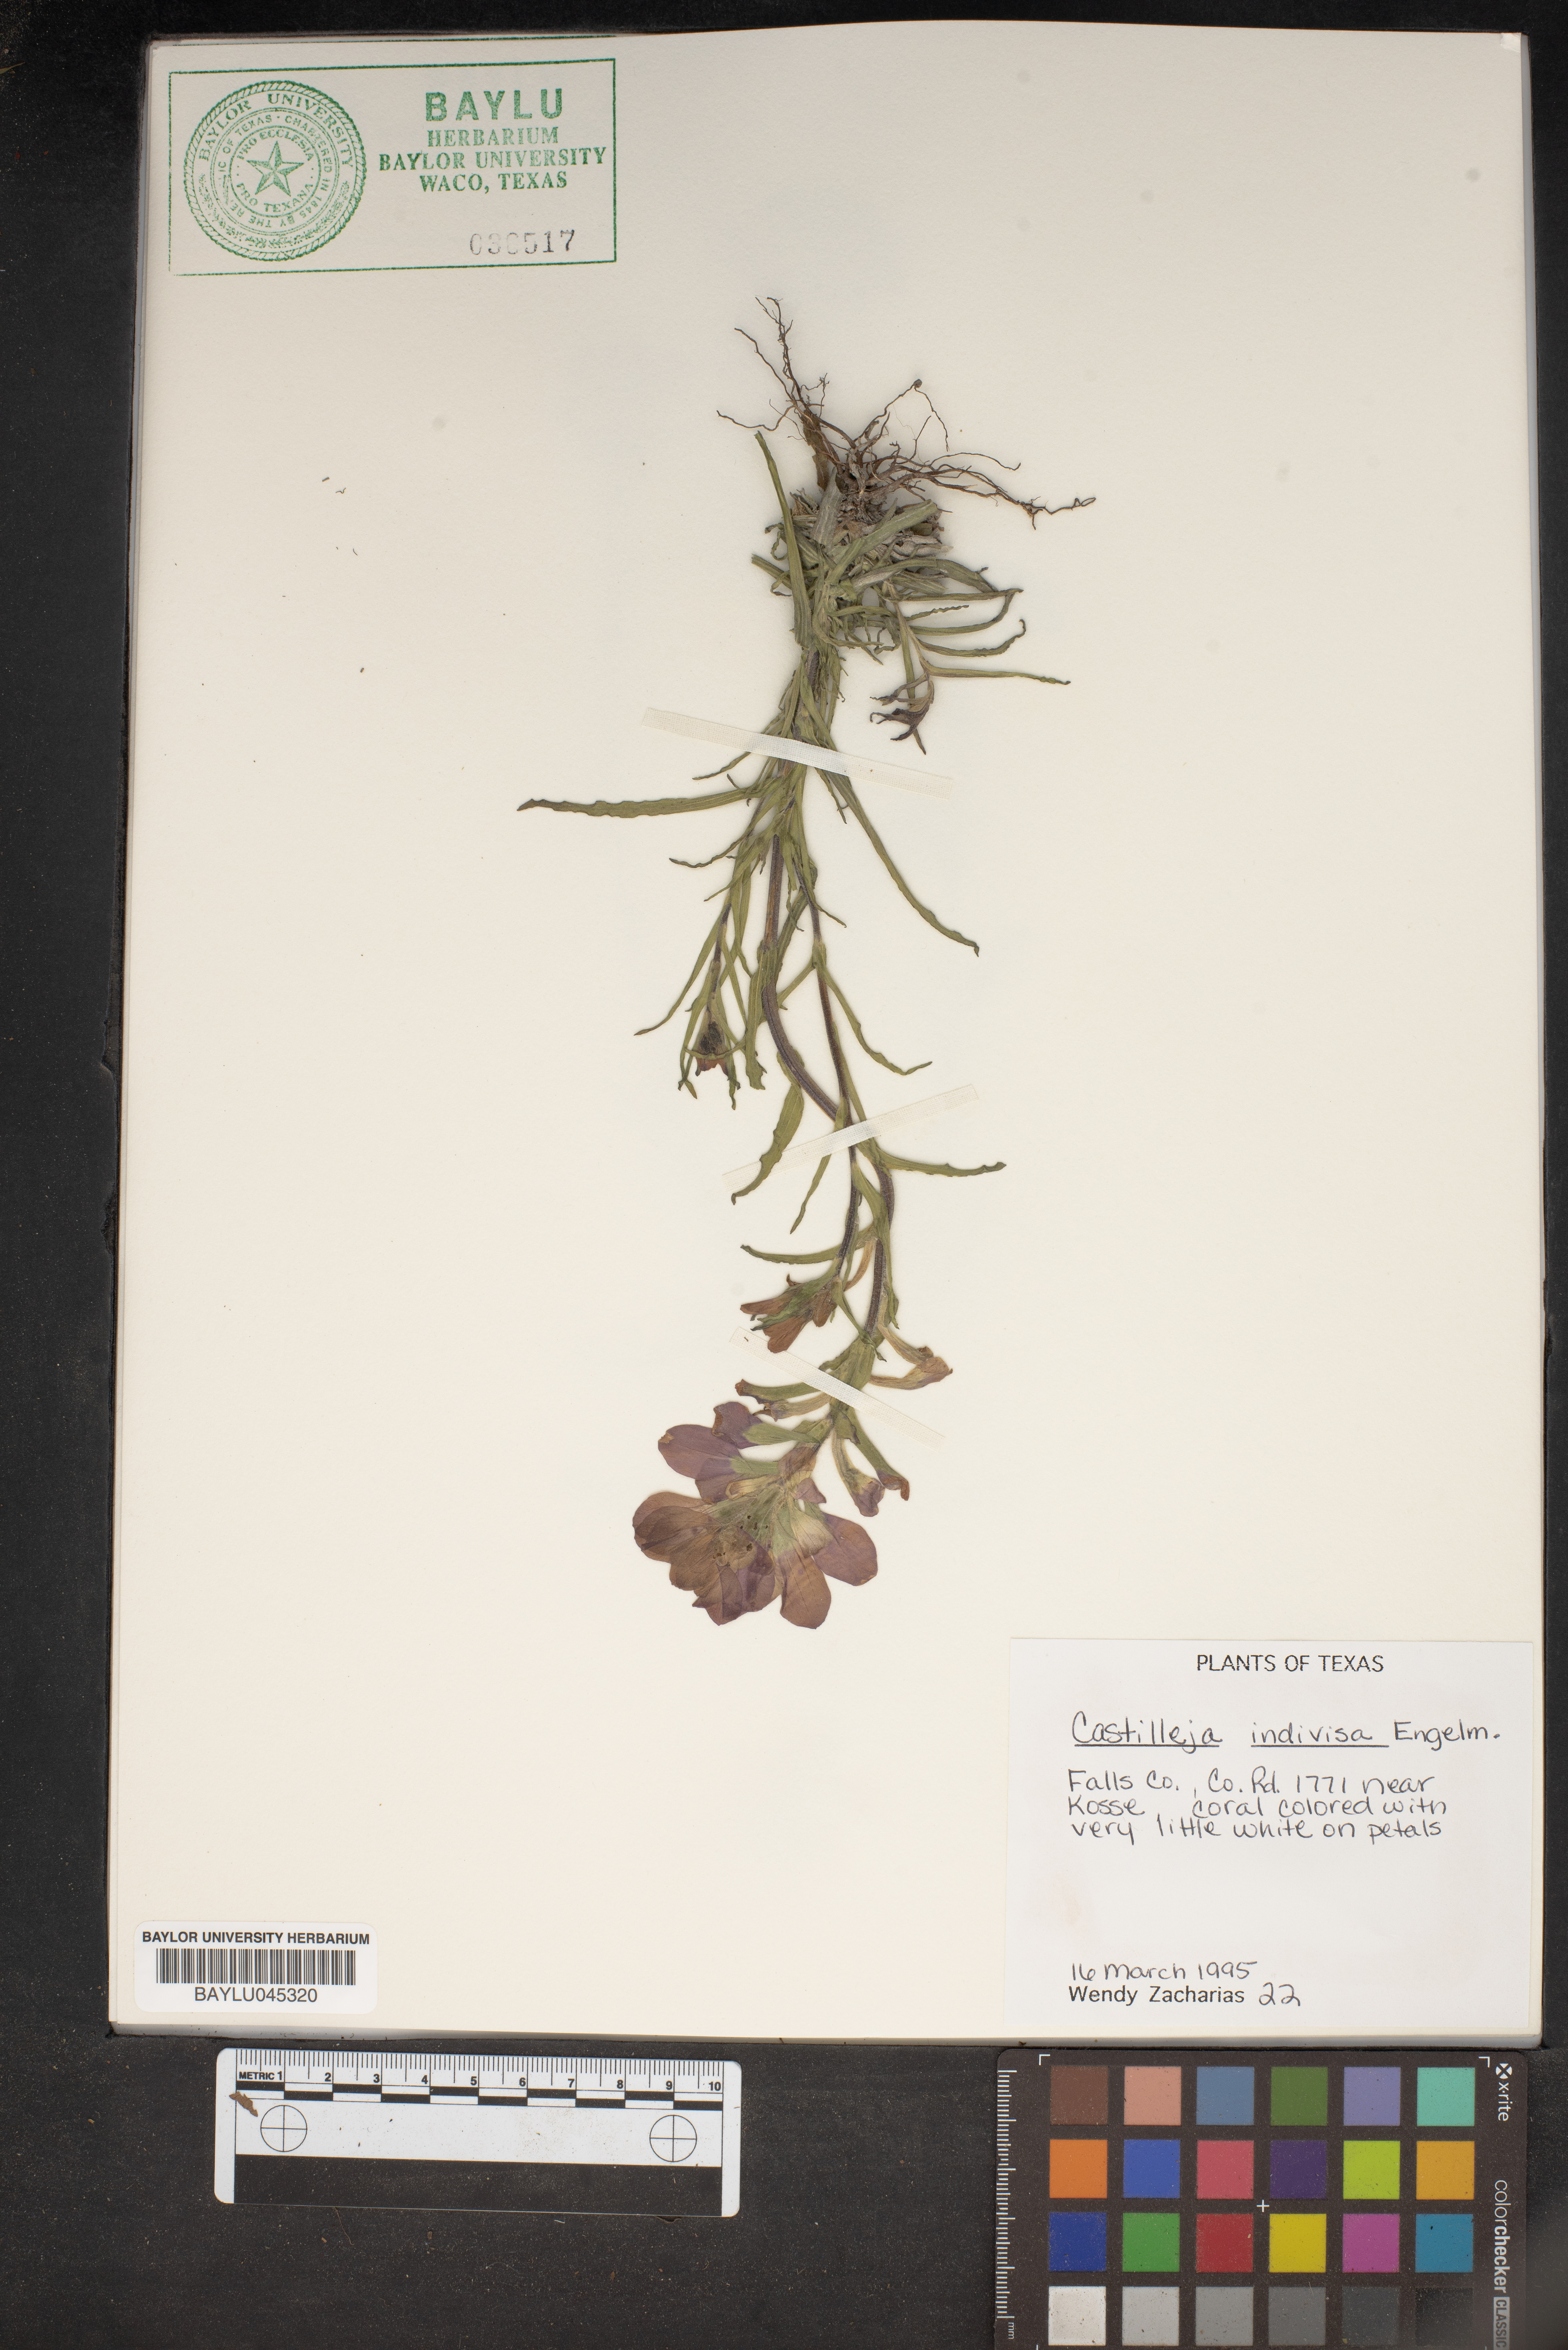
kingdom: Plantae
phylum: Tracheophyta
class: Magnoliopsida
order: Lamiales
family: Orobanchaceae
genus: Castilleja
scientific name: Castilleja indivisa
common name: Texas paintbrush
